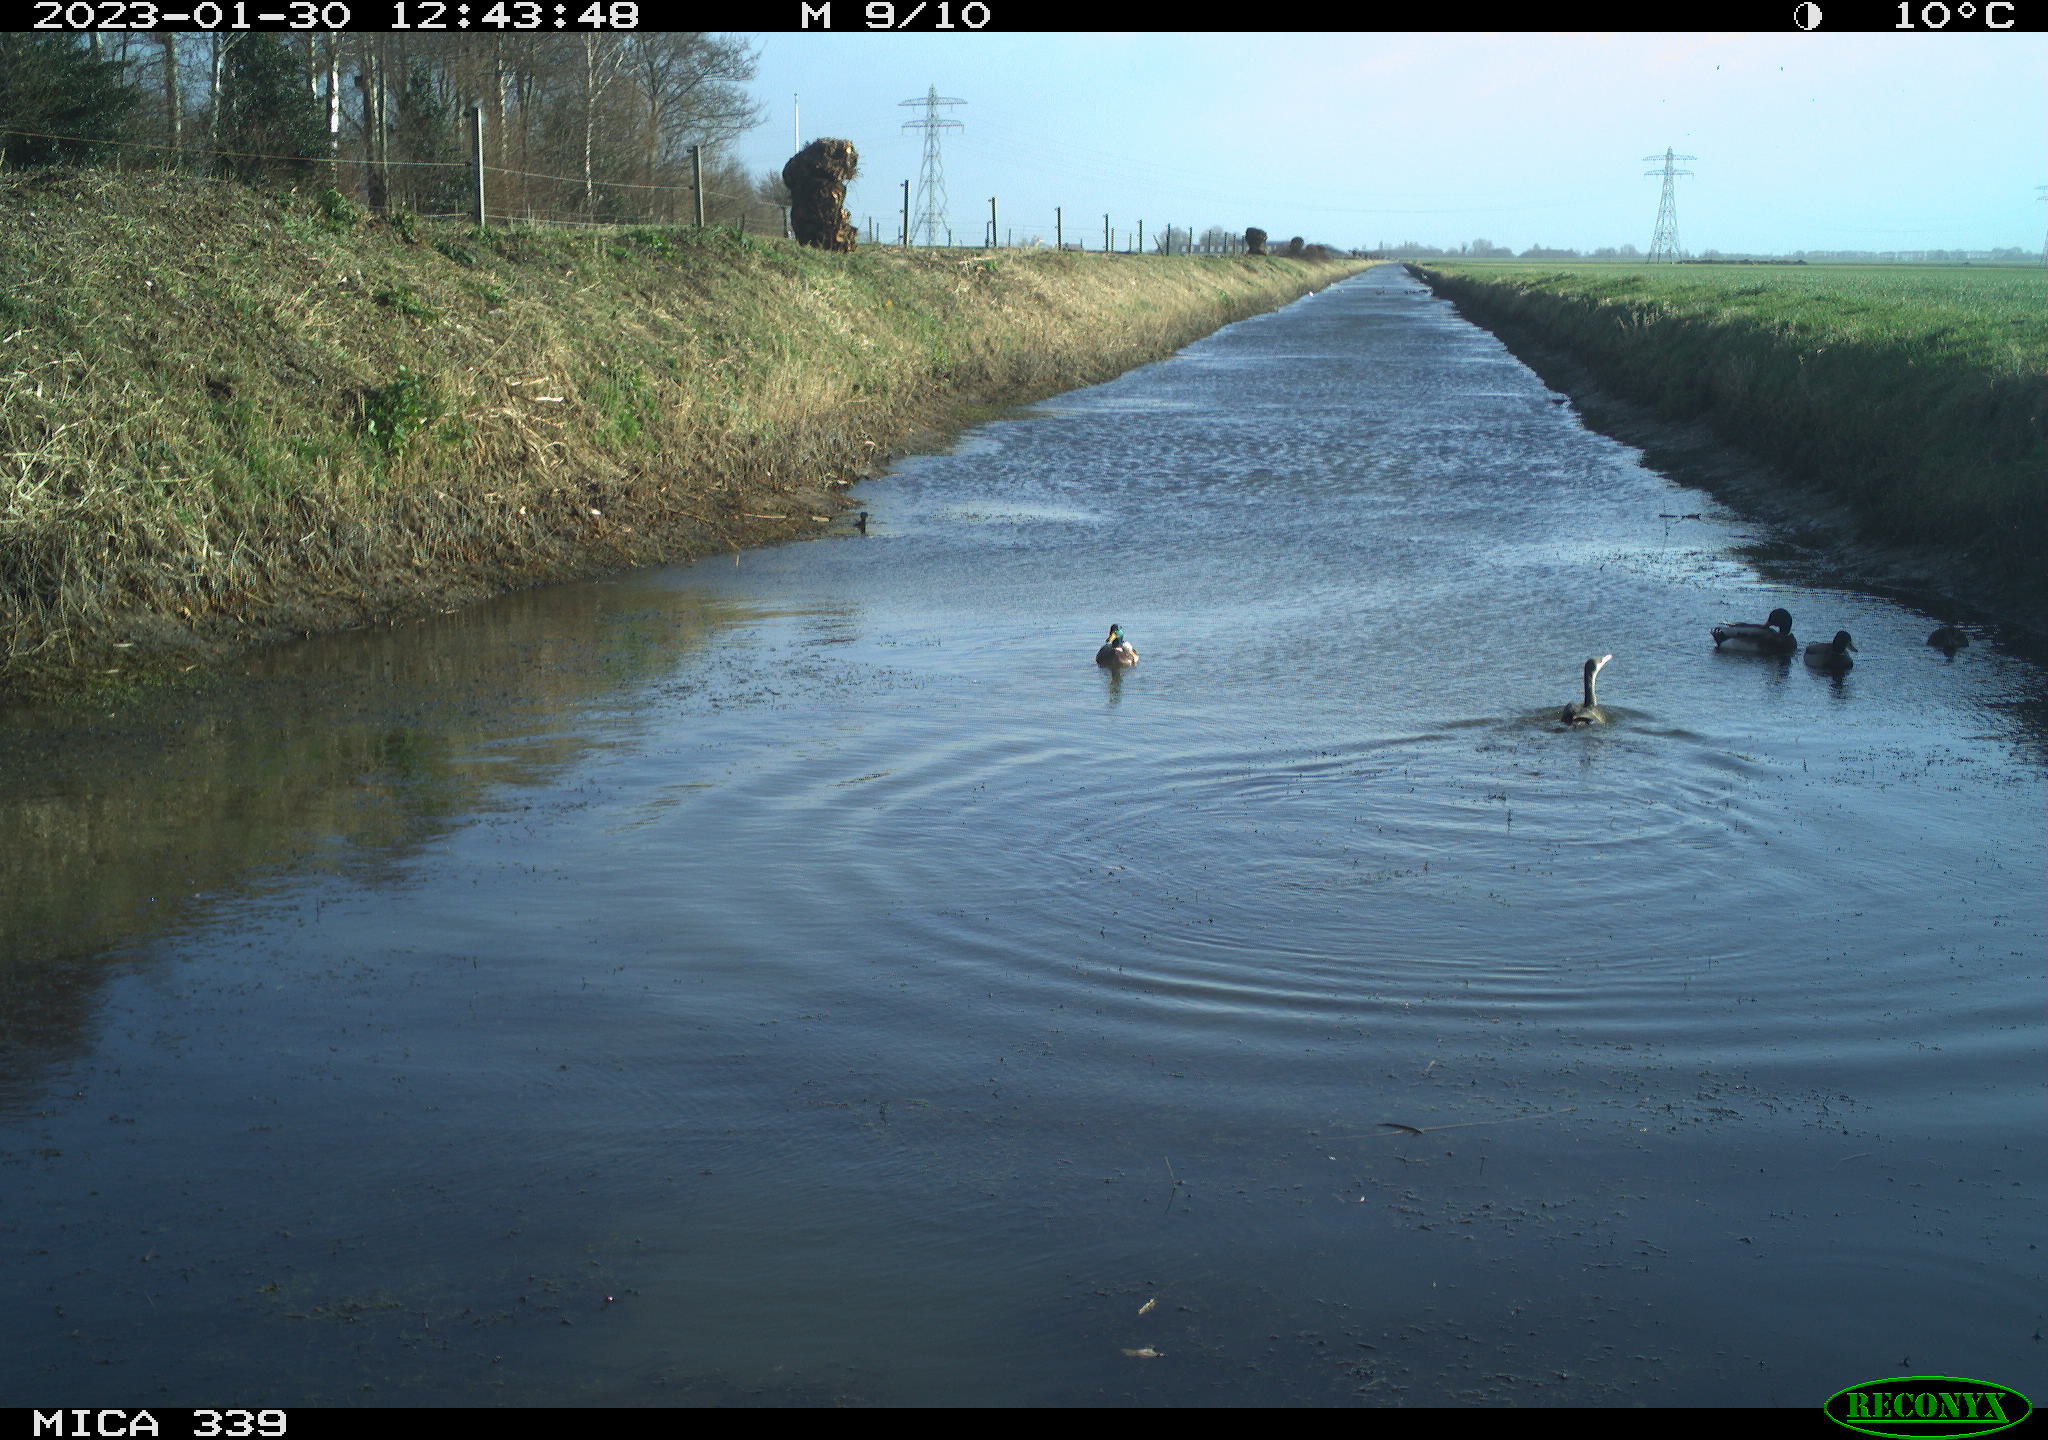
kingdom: Animalia
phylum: Chordata
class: Aves
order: Suliformes
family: Phalacrocoracidae
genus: Phalacrocorax
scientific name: Phalacrocorax carbo
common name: Great cormorant
